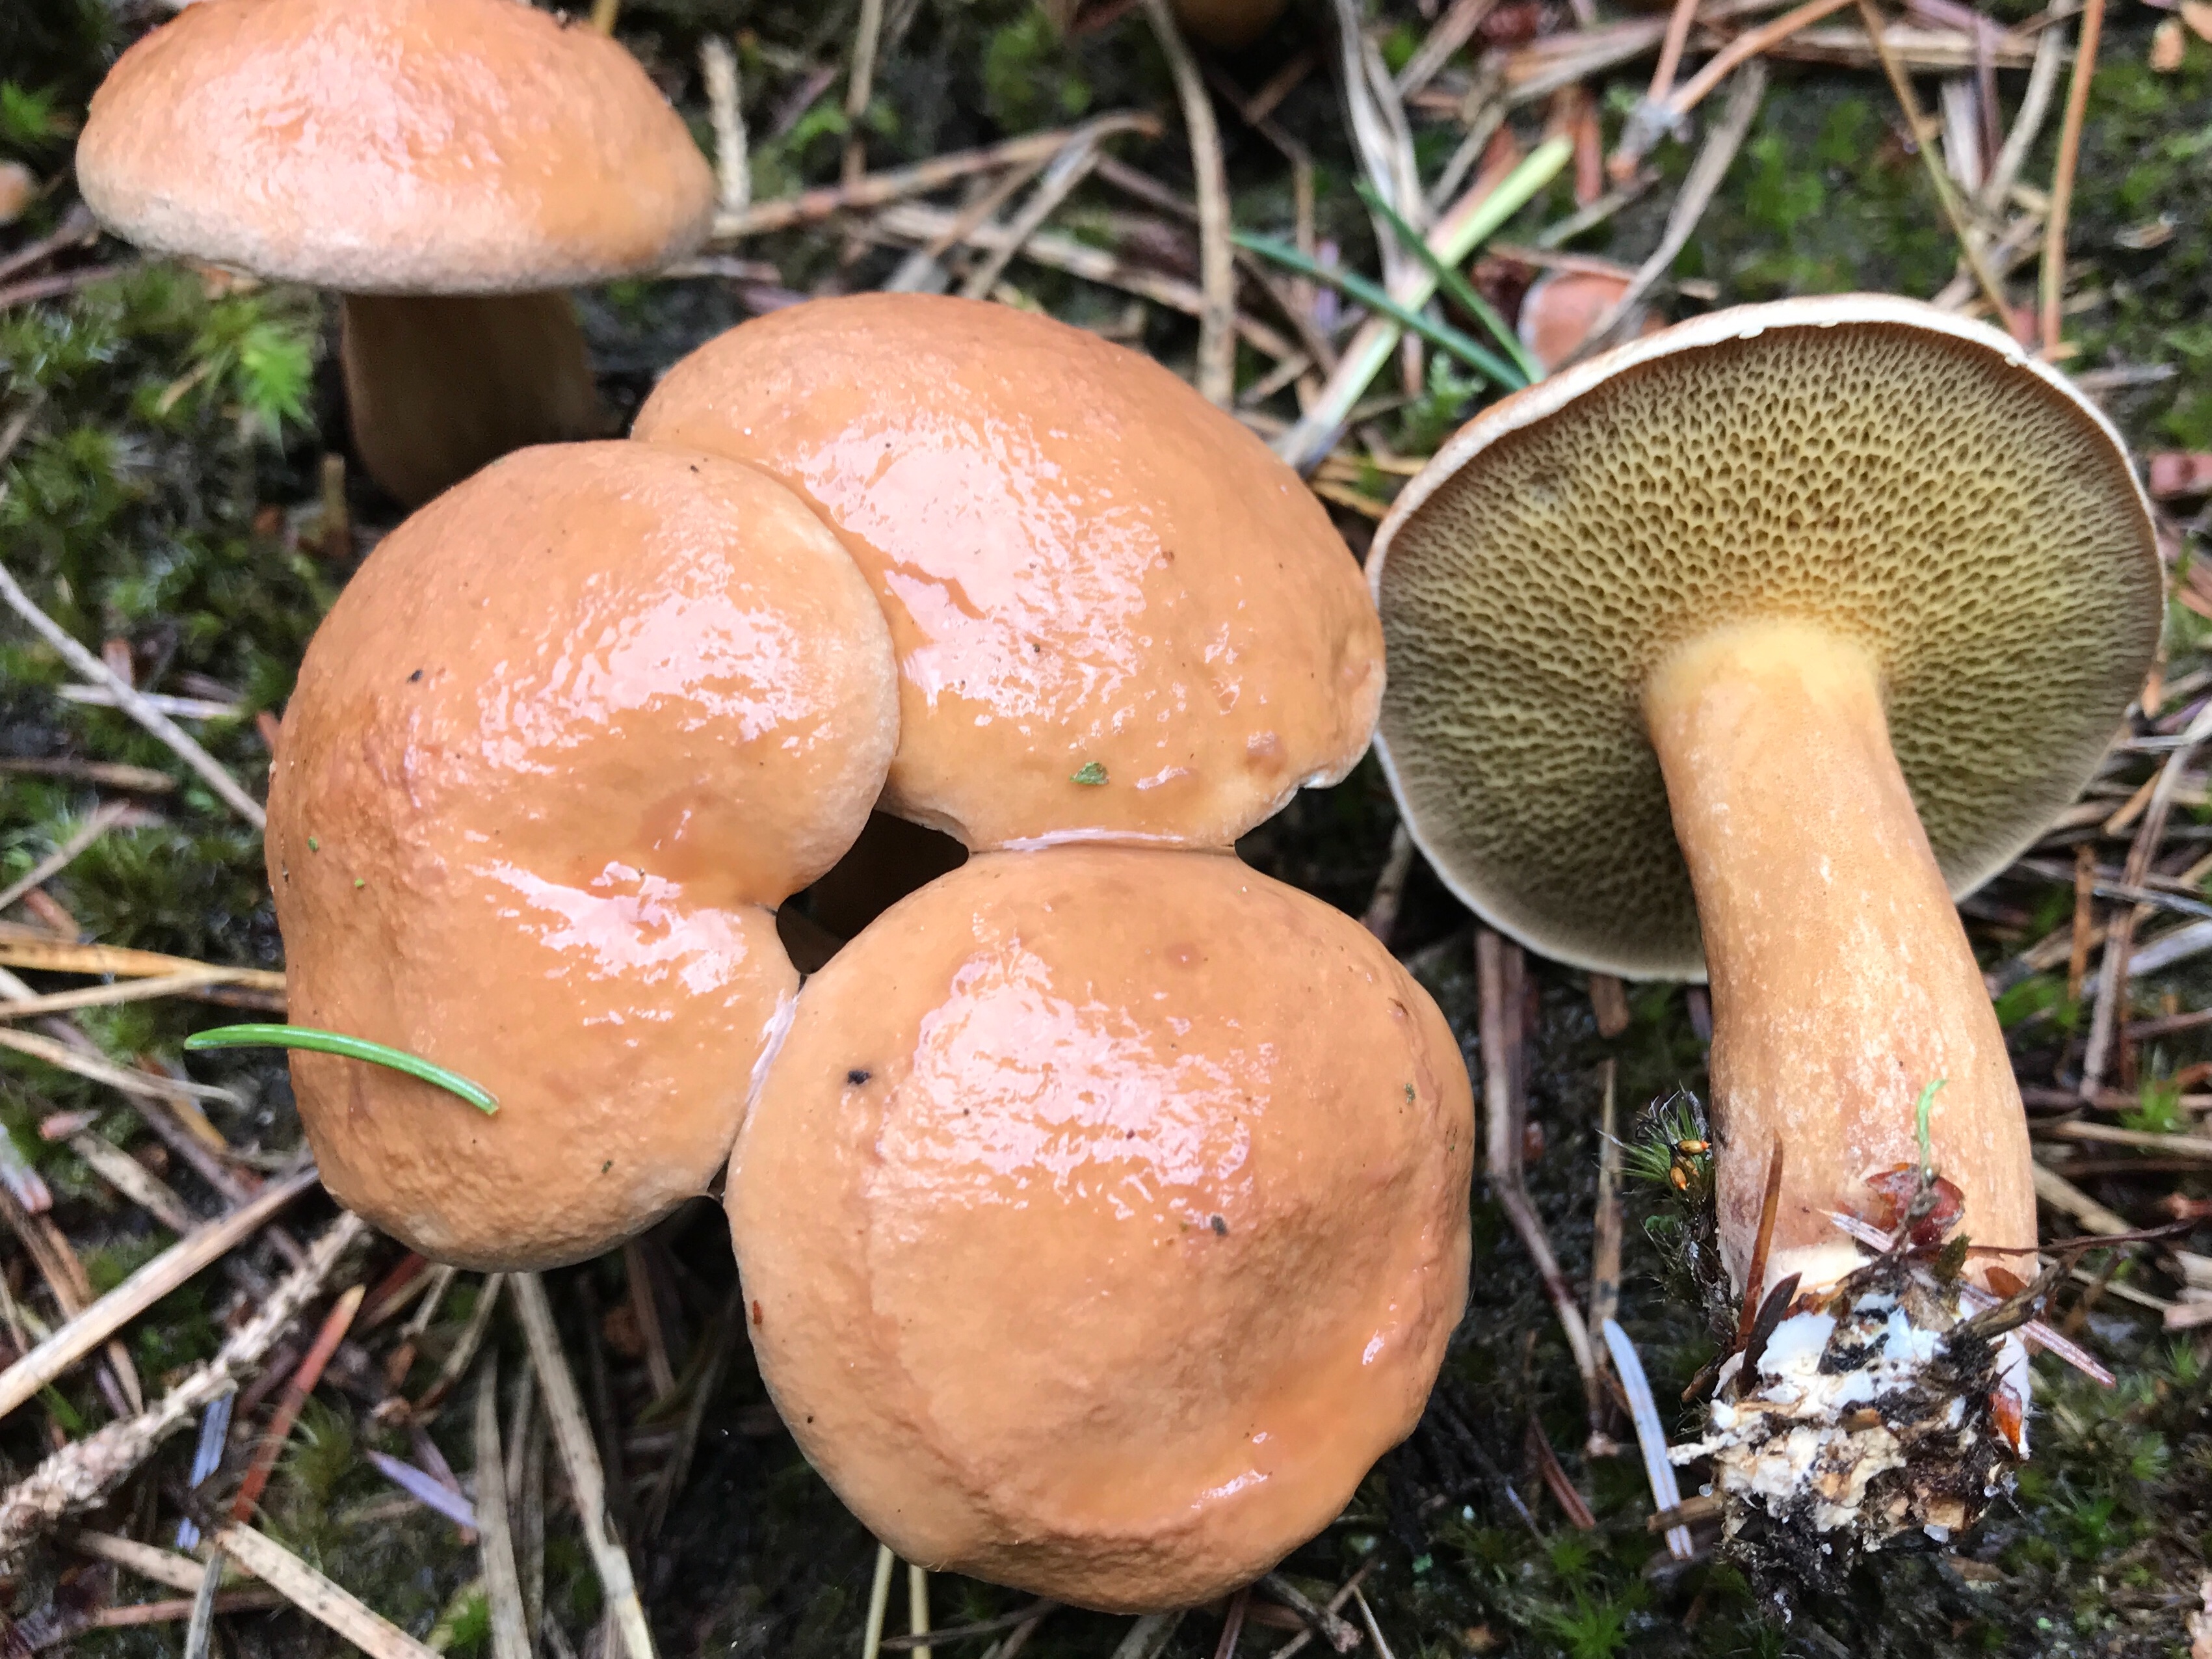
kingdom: Fungi
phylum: Basidiomycota
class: Agaricomycetes
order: Boletales
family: Suillaceae
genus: Suillus
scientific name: Suillus bovinus
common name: grovporet slimrørhat
